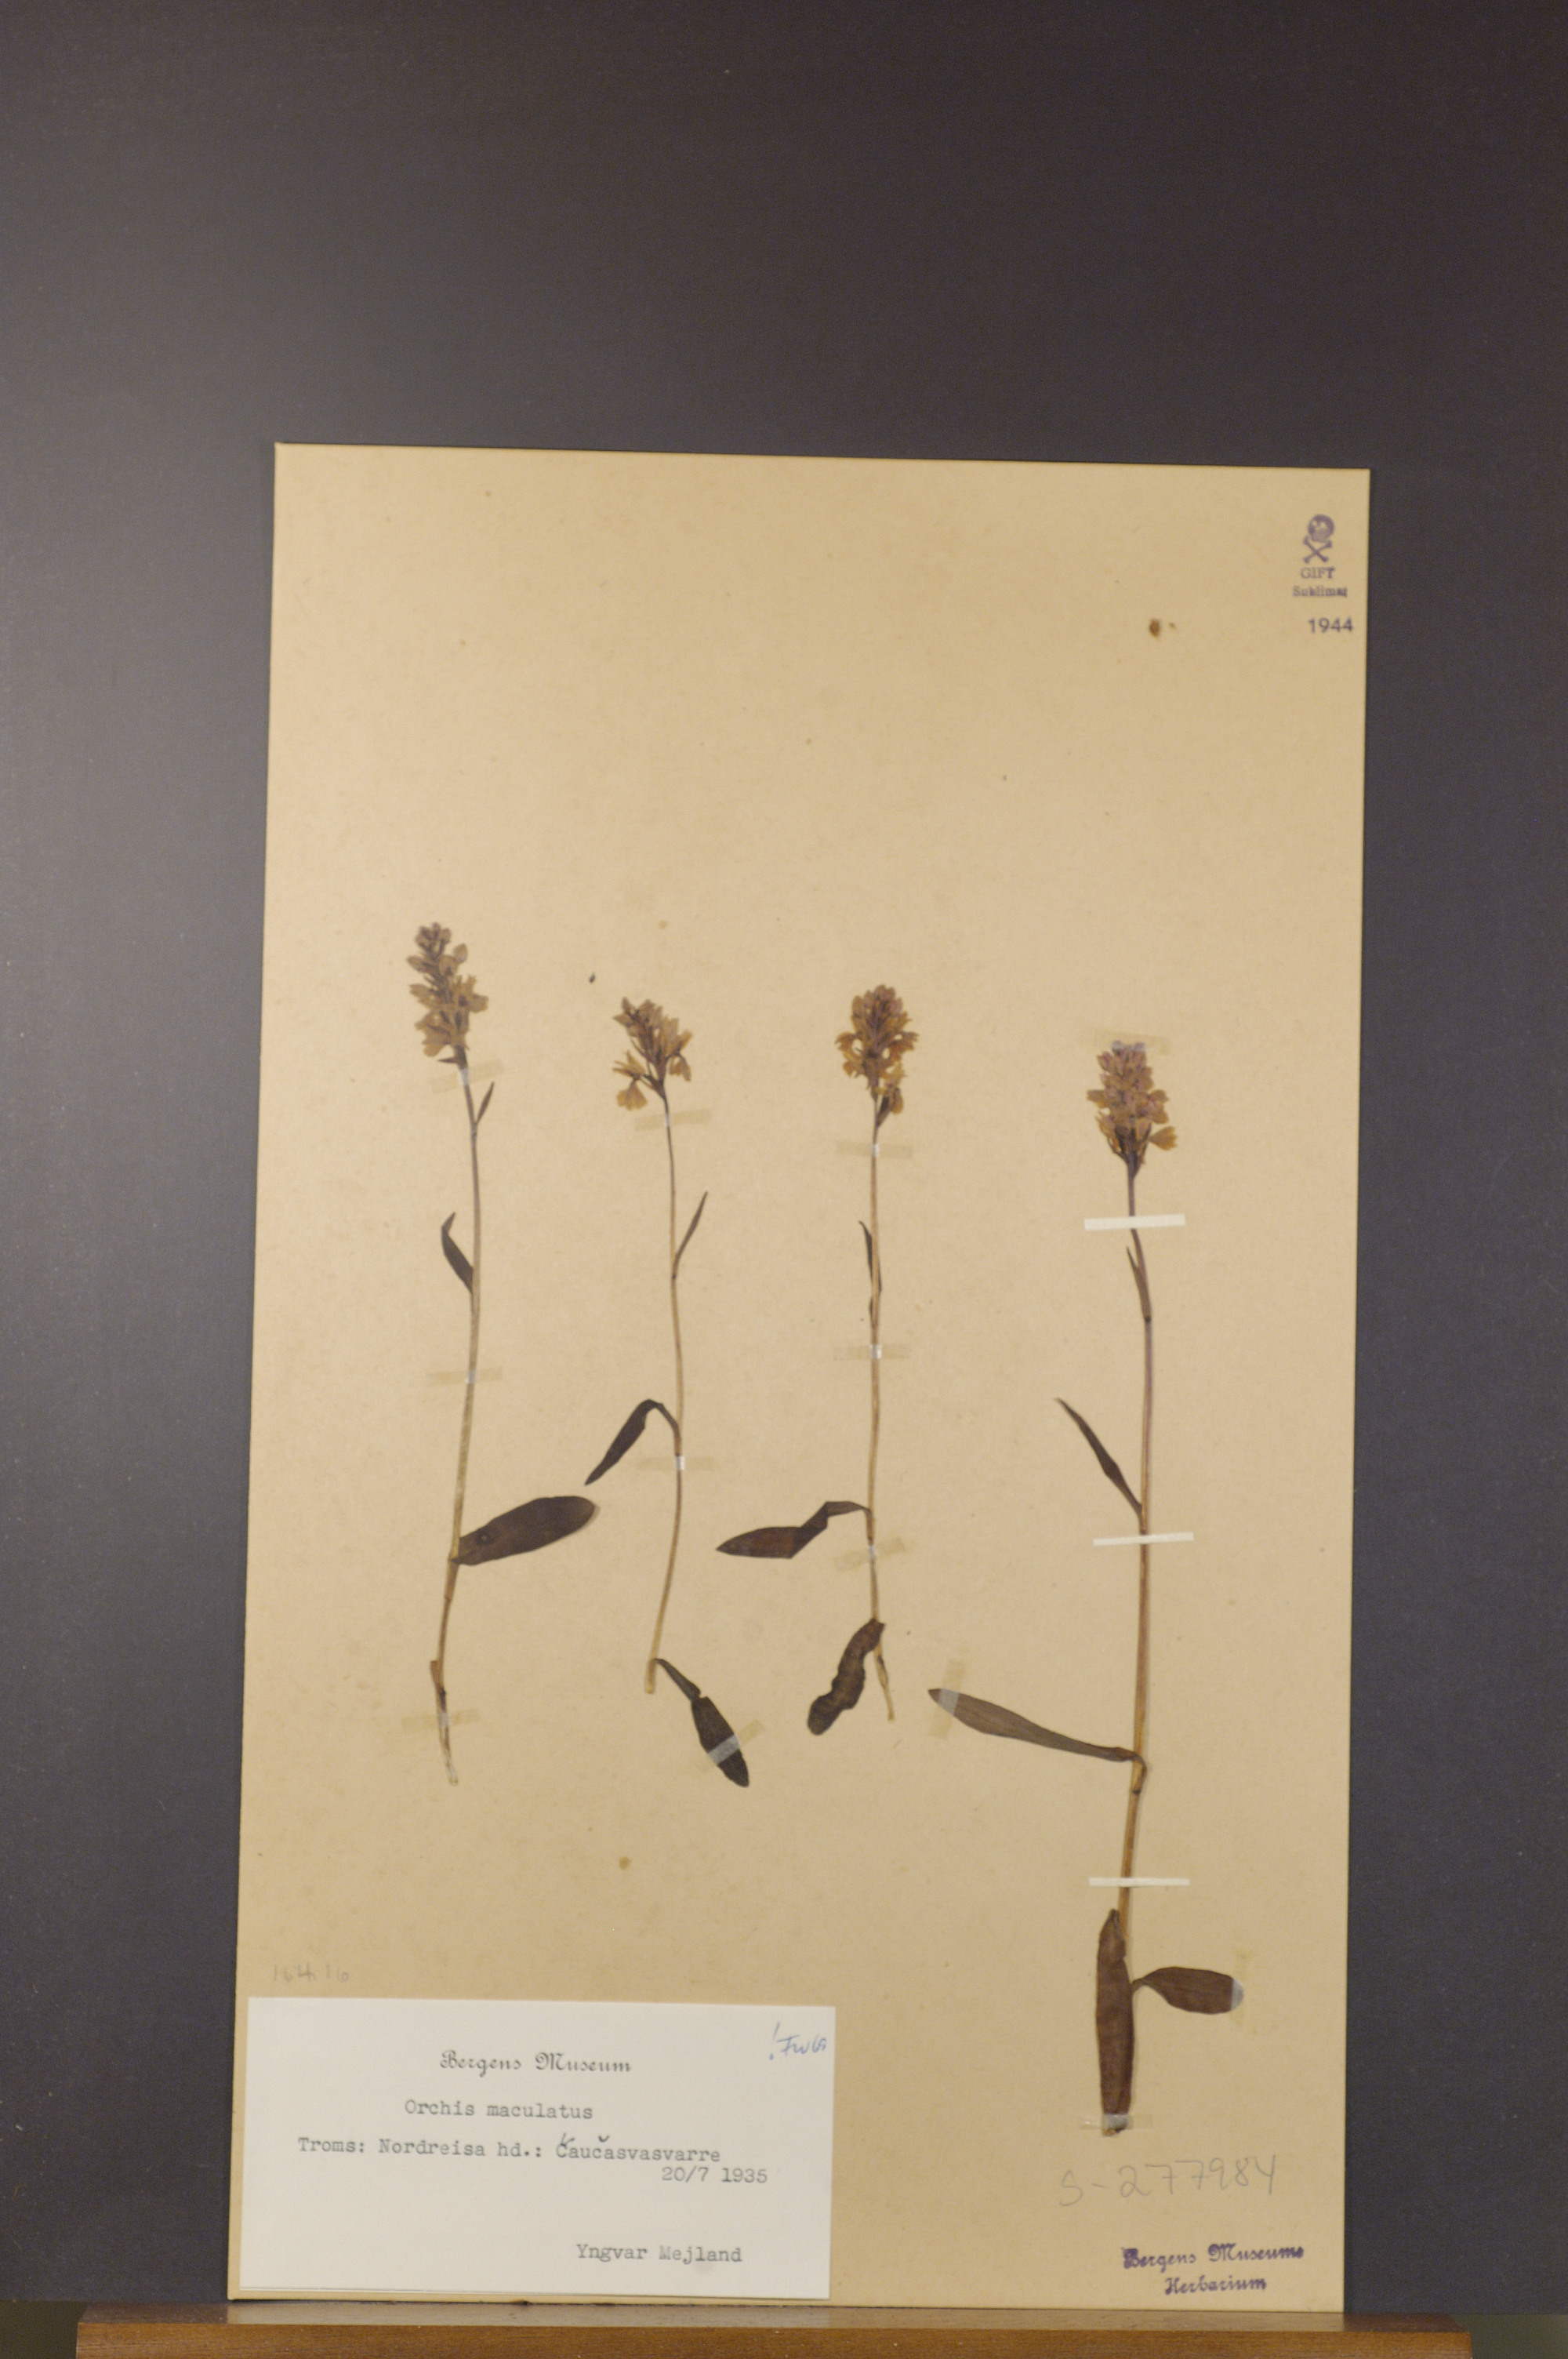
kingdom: Plantae
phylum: Tracheophyta
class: Liliopsida
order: Asparagales
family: Orchidaceae
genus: Dactylorhiza
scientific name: Dactylorhiza maculata
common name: Heath spotted-orchid
